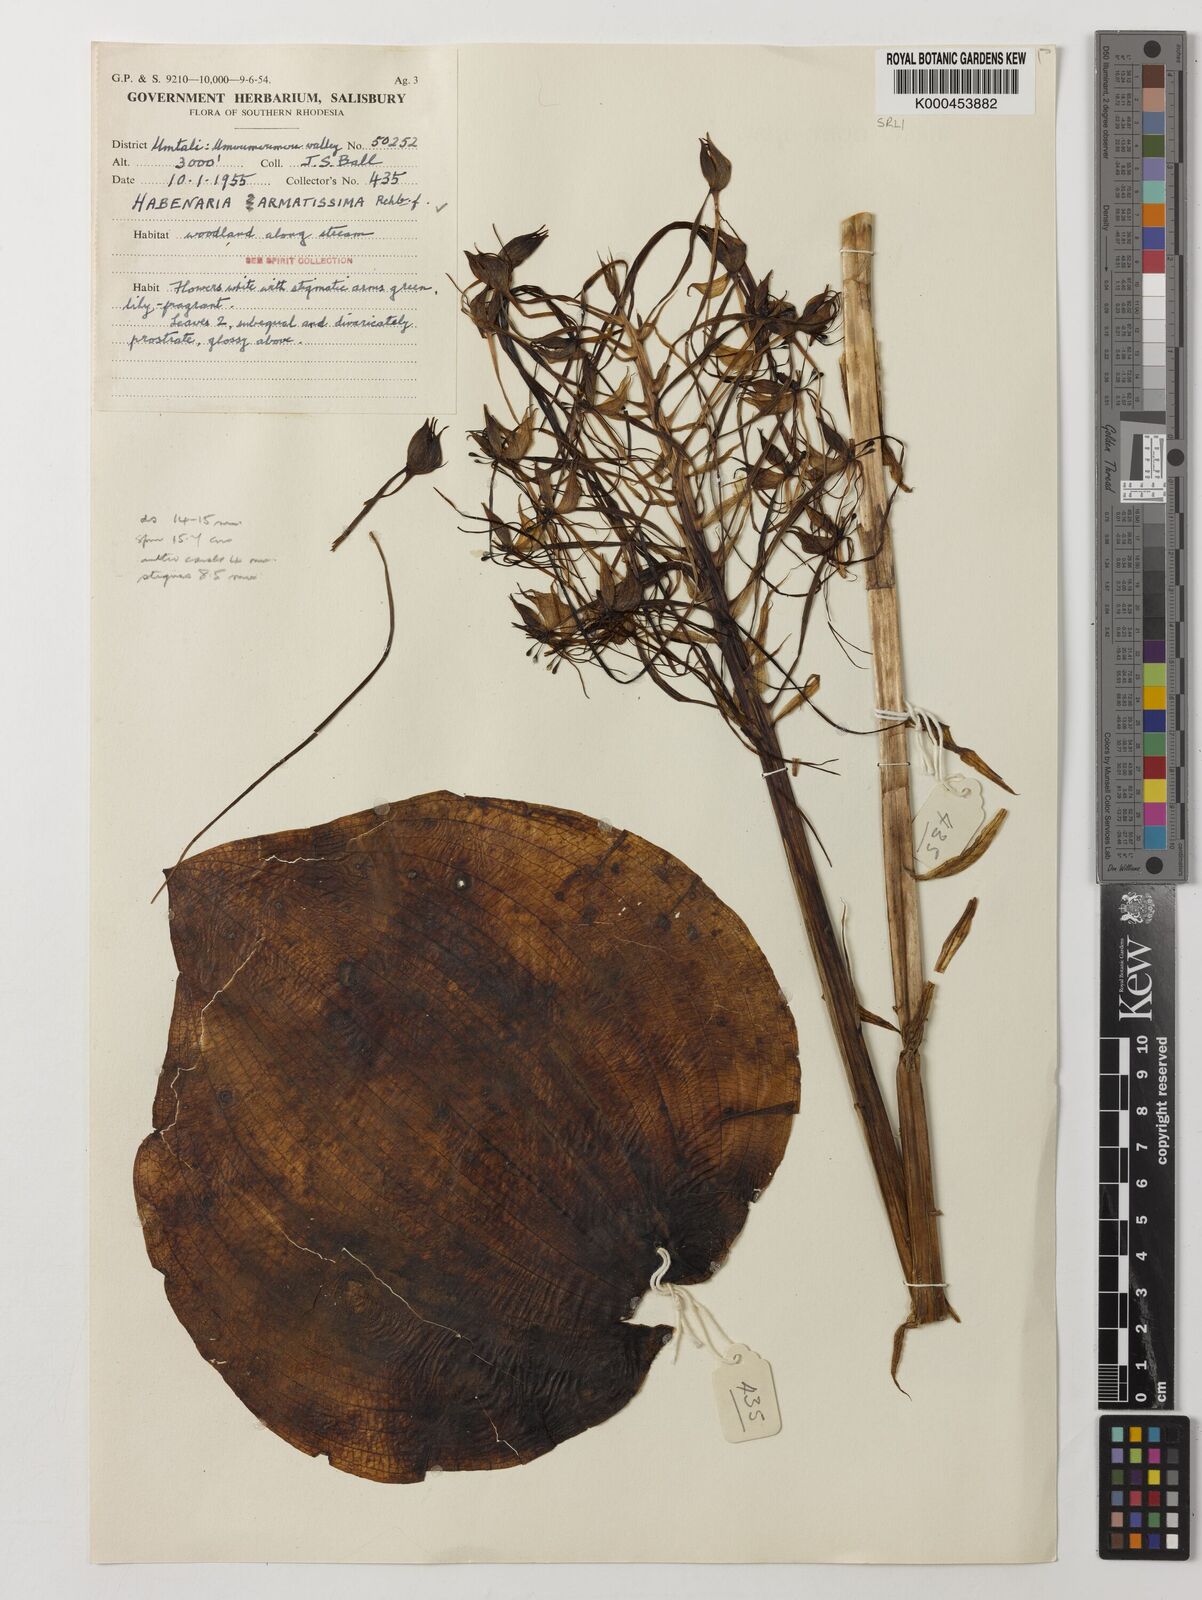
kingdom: Plantae
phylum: Tracheophyta
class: Liliopsida
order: Asparagales
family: Orchidaceae
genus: Habenaria
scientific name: Habenaria armatissima
